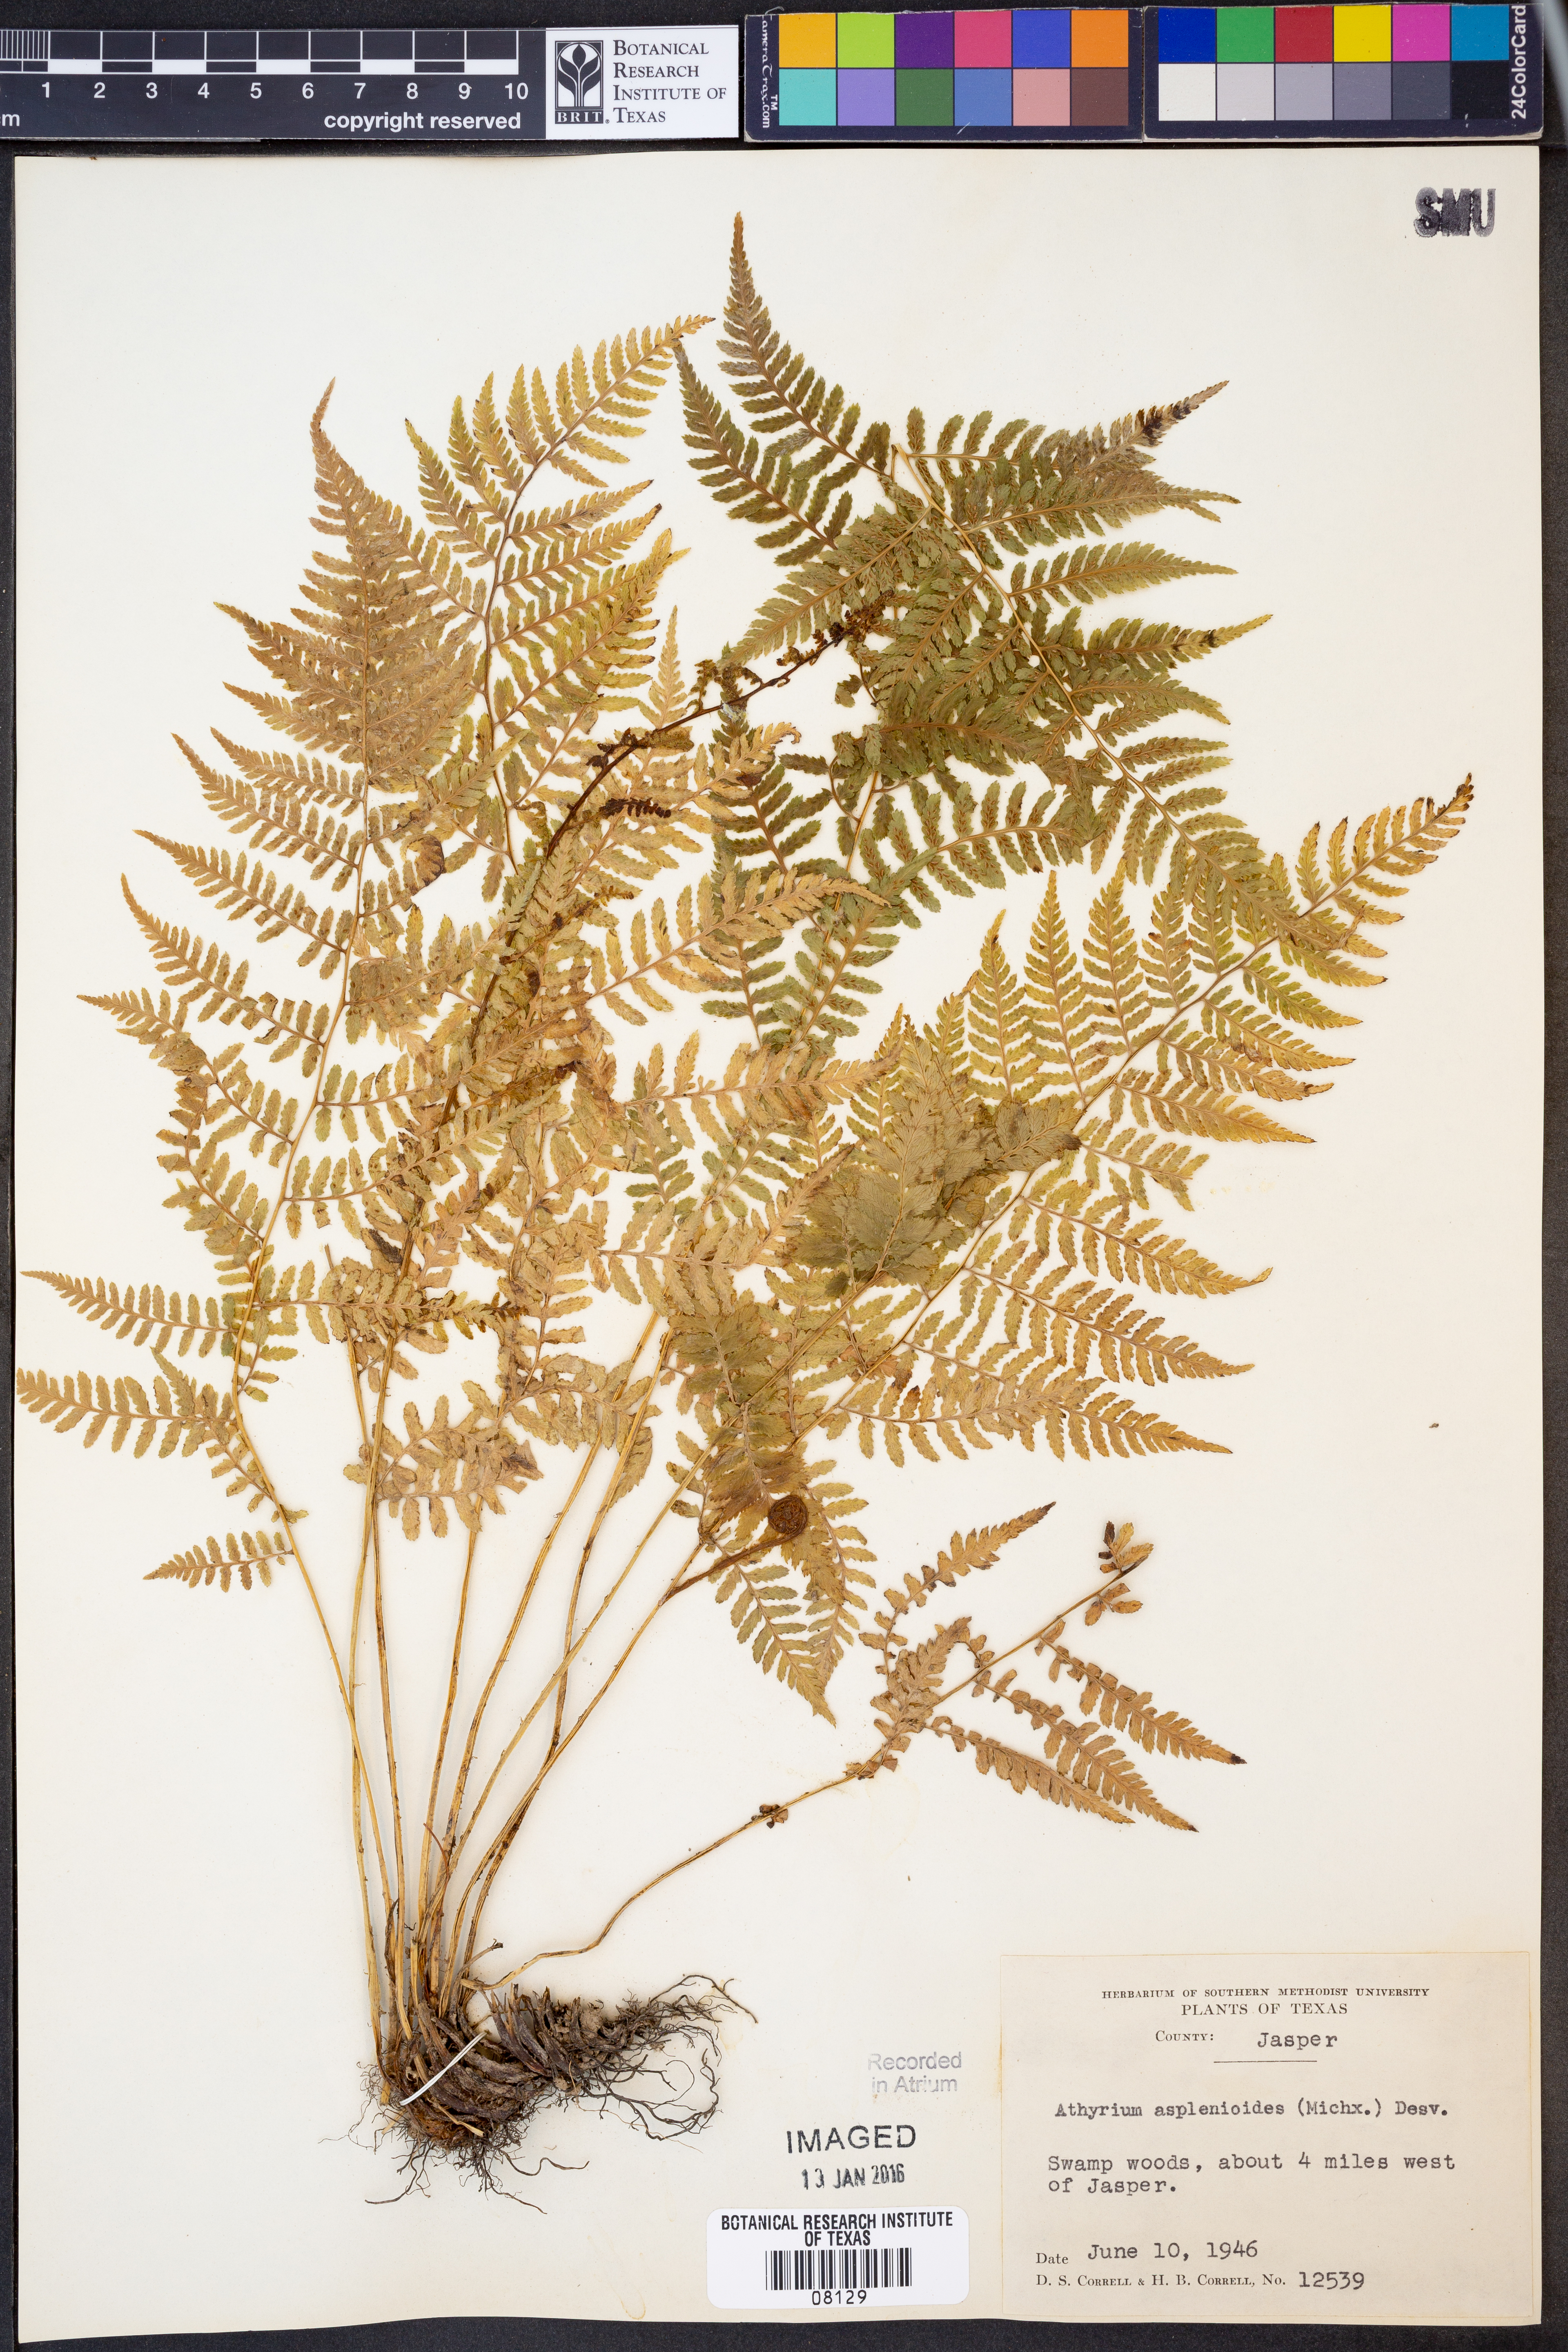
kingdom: Plantae
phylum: Tracheophyta
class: Polypodiopsida
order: Polypodiales
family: Athyriaceae
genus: Athyrium
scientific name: Athyrium asplenioides
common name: Southern lady fern
